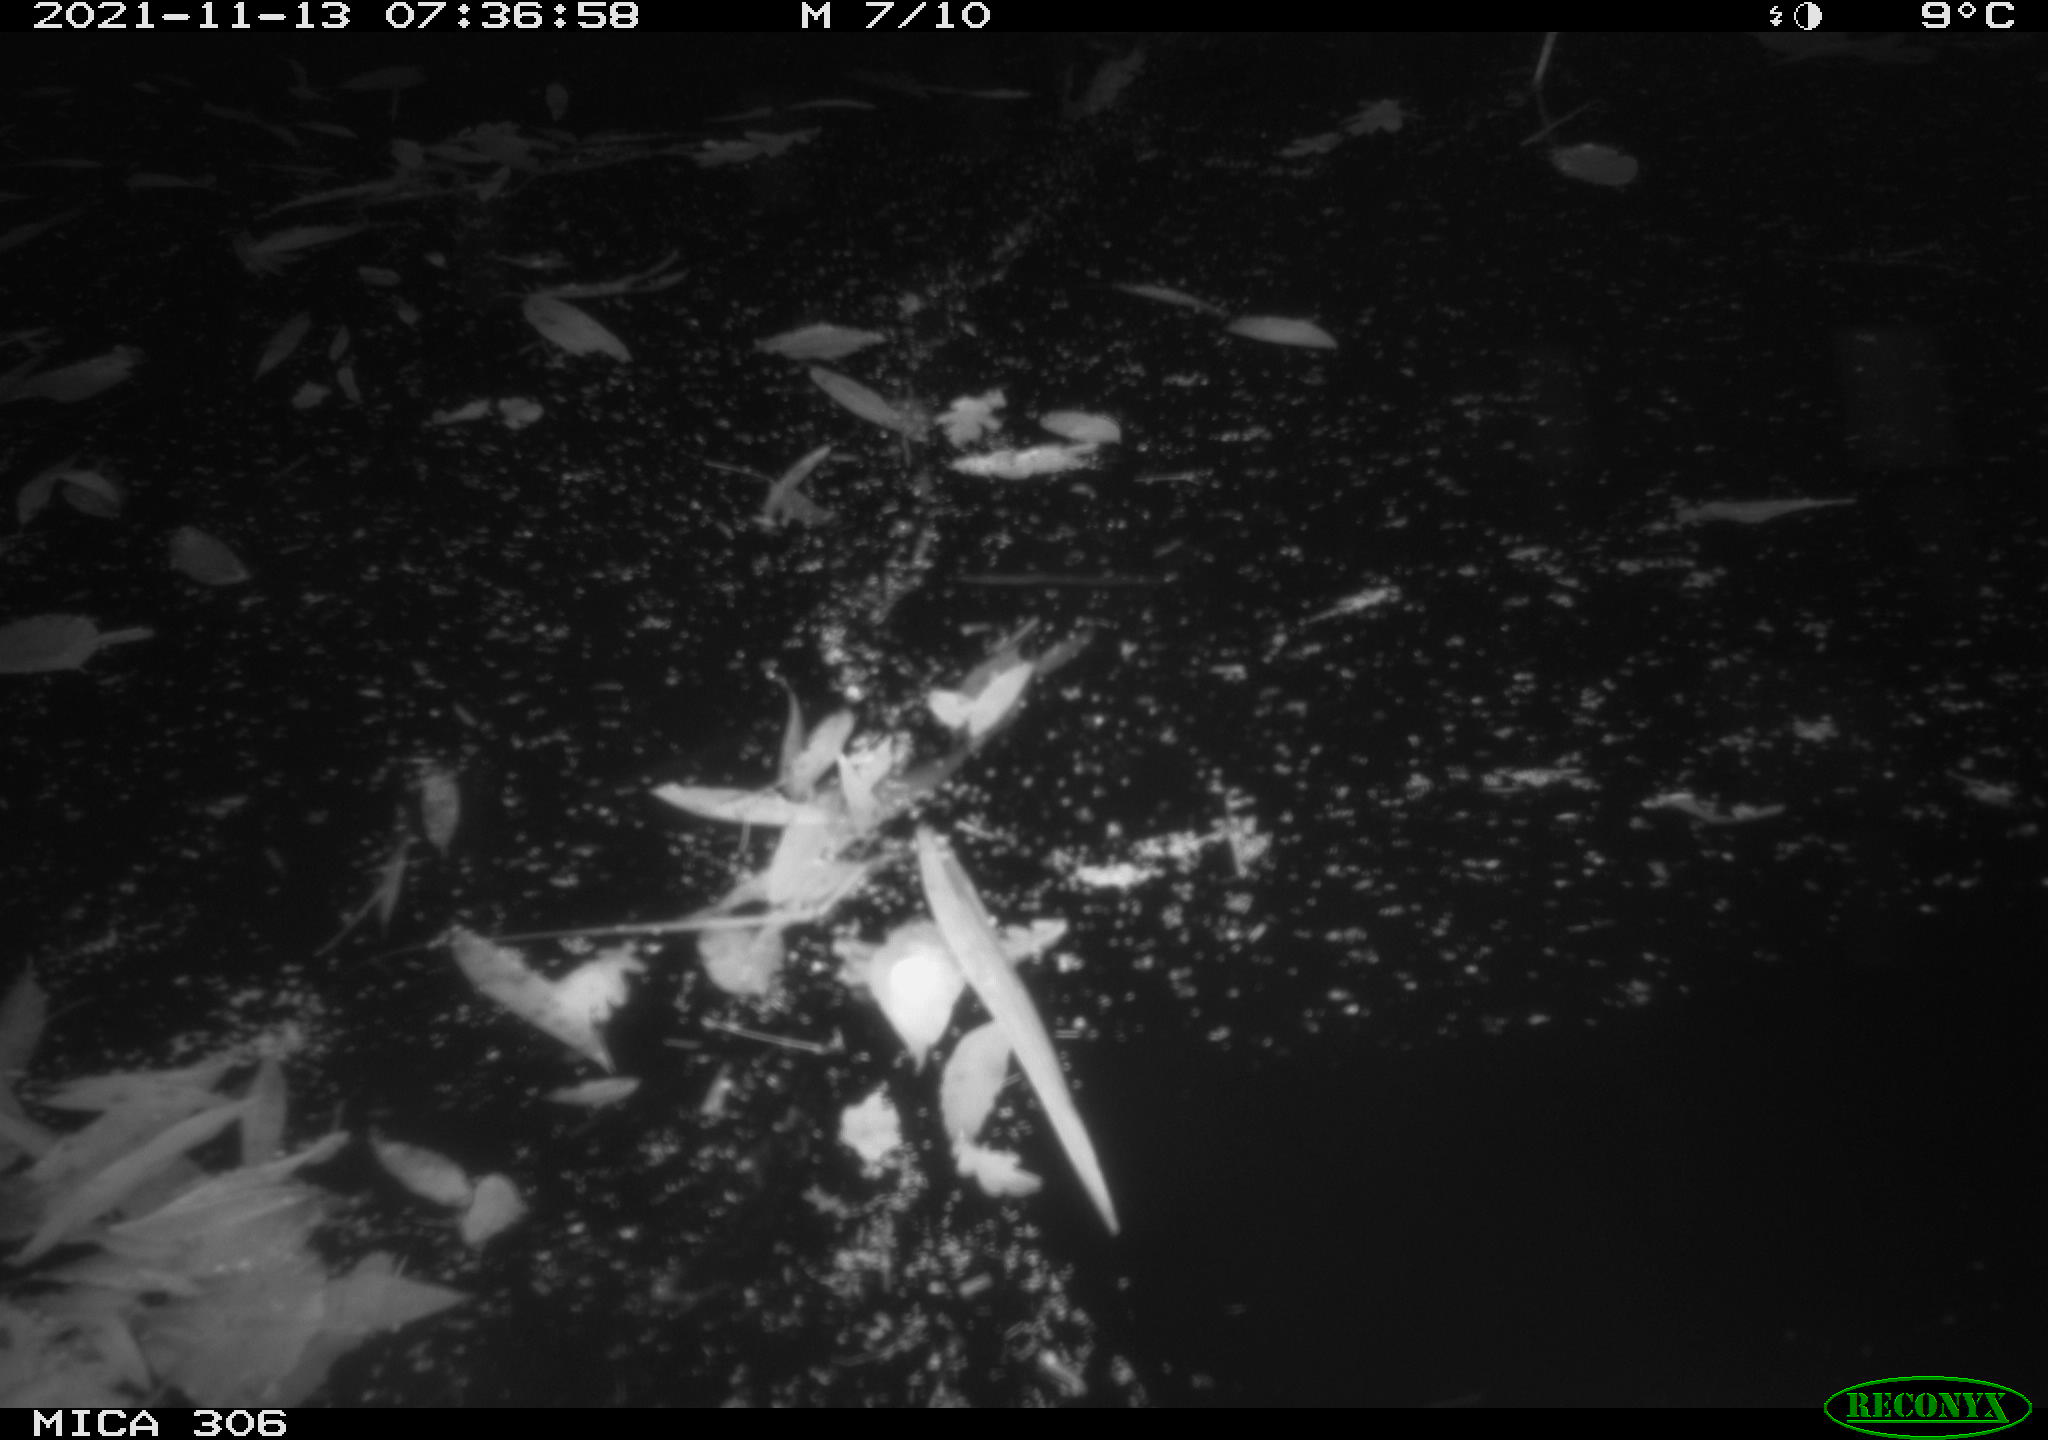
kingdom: Animalia
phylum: Chordata
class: Aves
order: Gruiformes
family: Rallidae
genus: Fulica
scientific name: Fulica atra
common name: Eurasian coot
